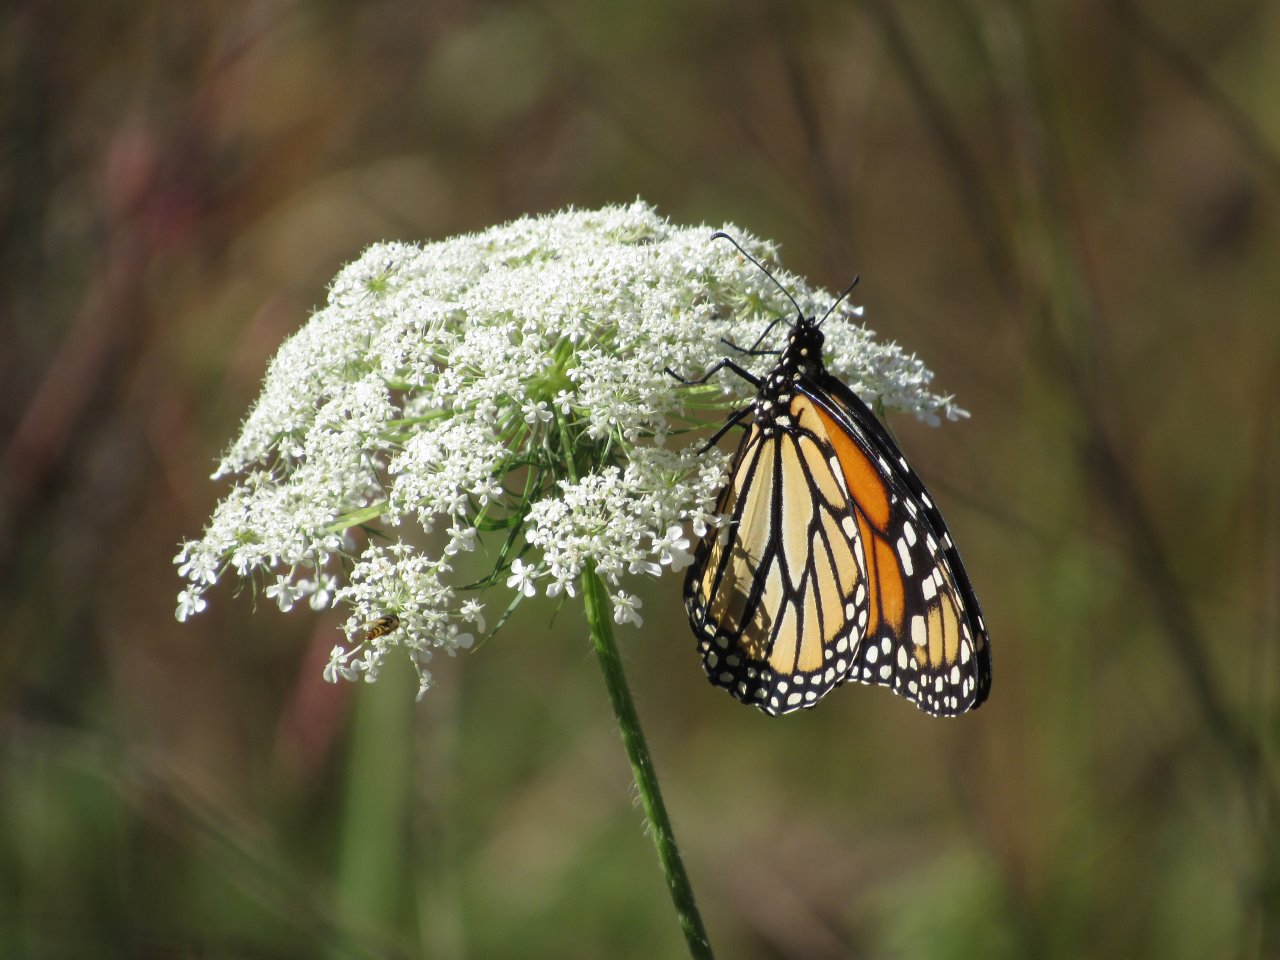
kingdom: Animalia
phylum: Arthropoda
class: Insecta
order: Lepidoptera
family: Nymphalidae
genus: Danaus
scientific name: Danaus plexippus
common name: Monarch
